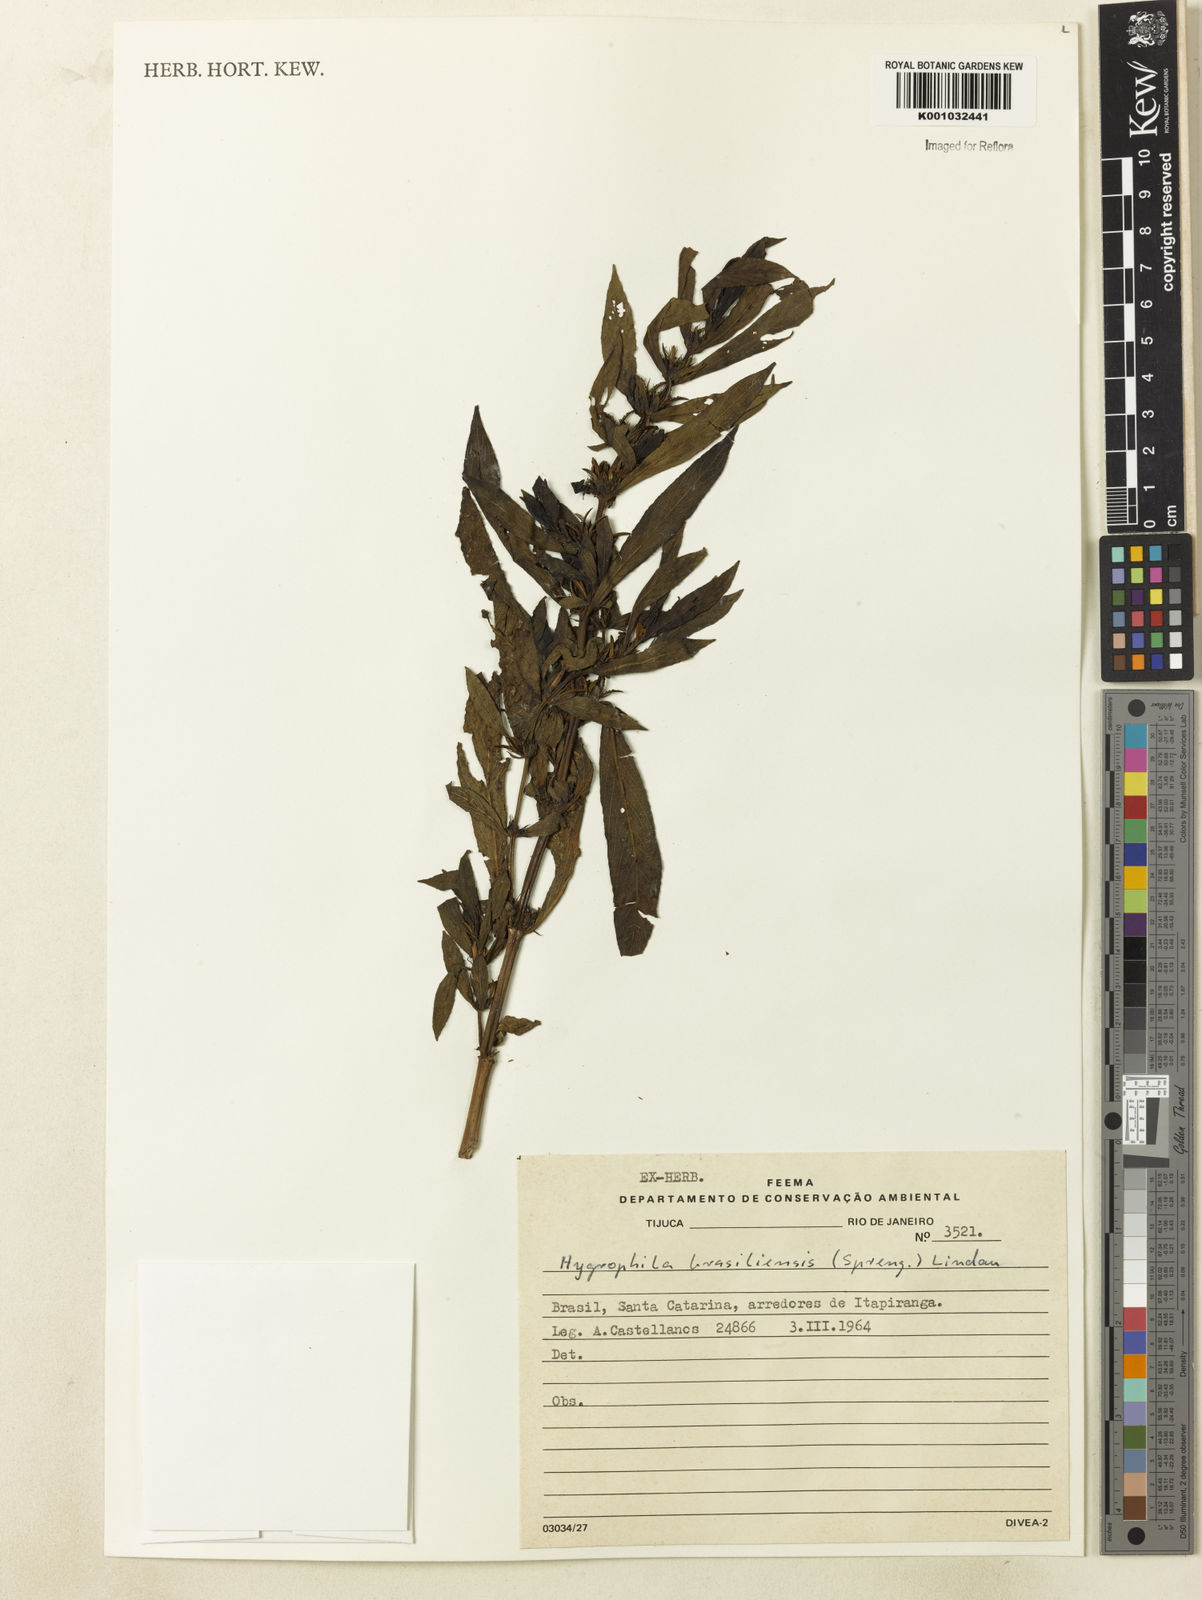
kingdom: Plantae
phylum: Tracheophyta
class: Magnoliopsida
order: Lamiales
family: Acanthaceae
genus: Hygrophila
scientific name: Hygrophila costata
